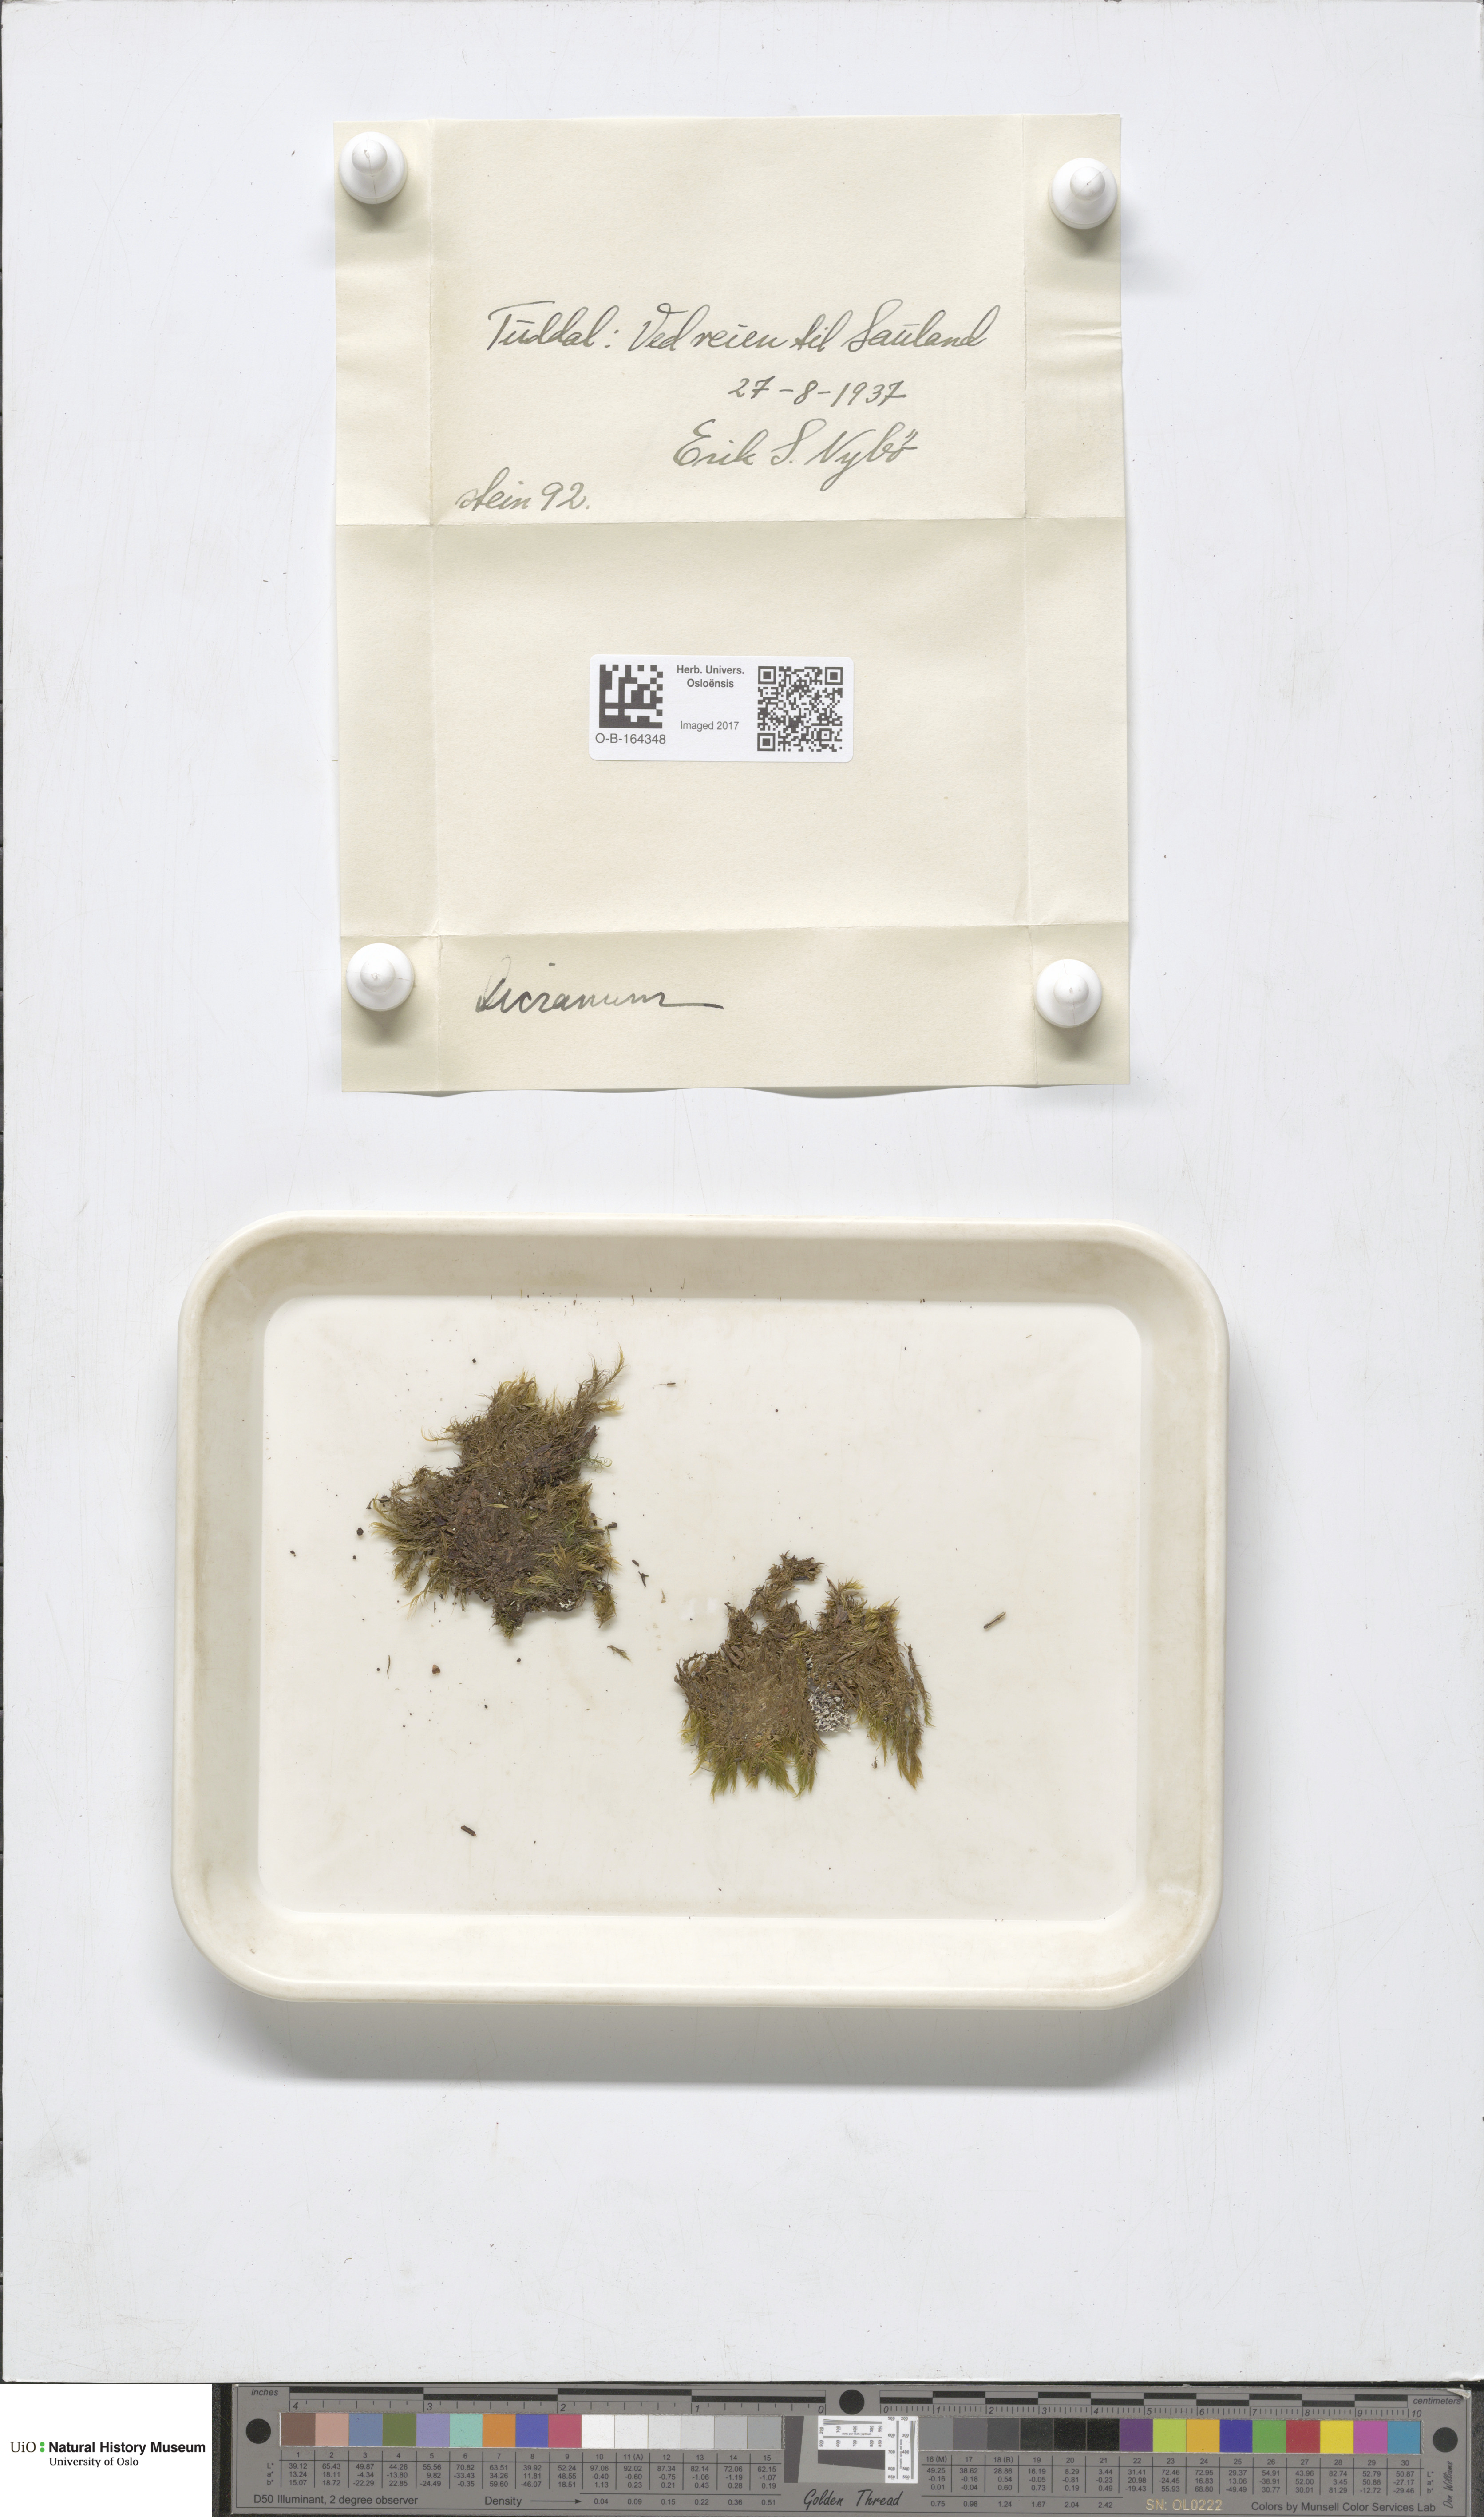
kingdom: Plantae
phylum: Bryophyta
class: Bryopsida
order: Dicranales
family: Dicranaceae
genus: Dicranum
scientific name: Dicranum
